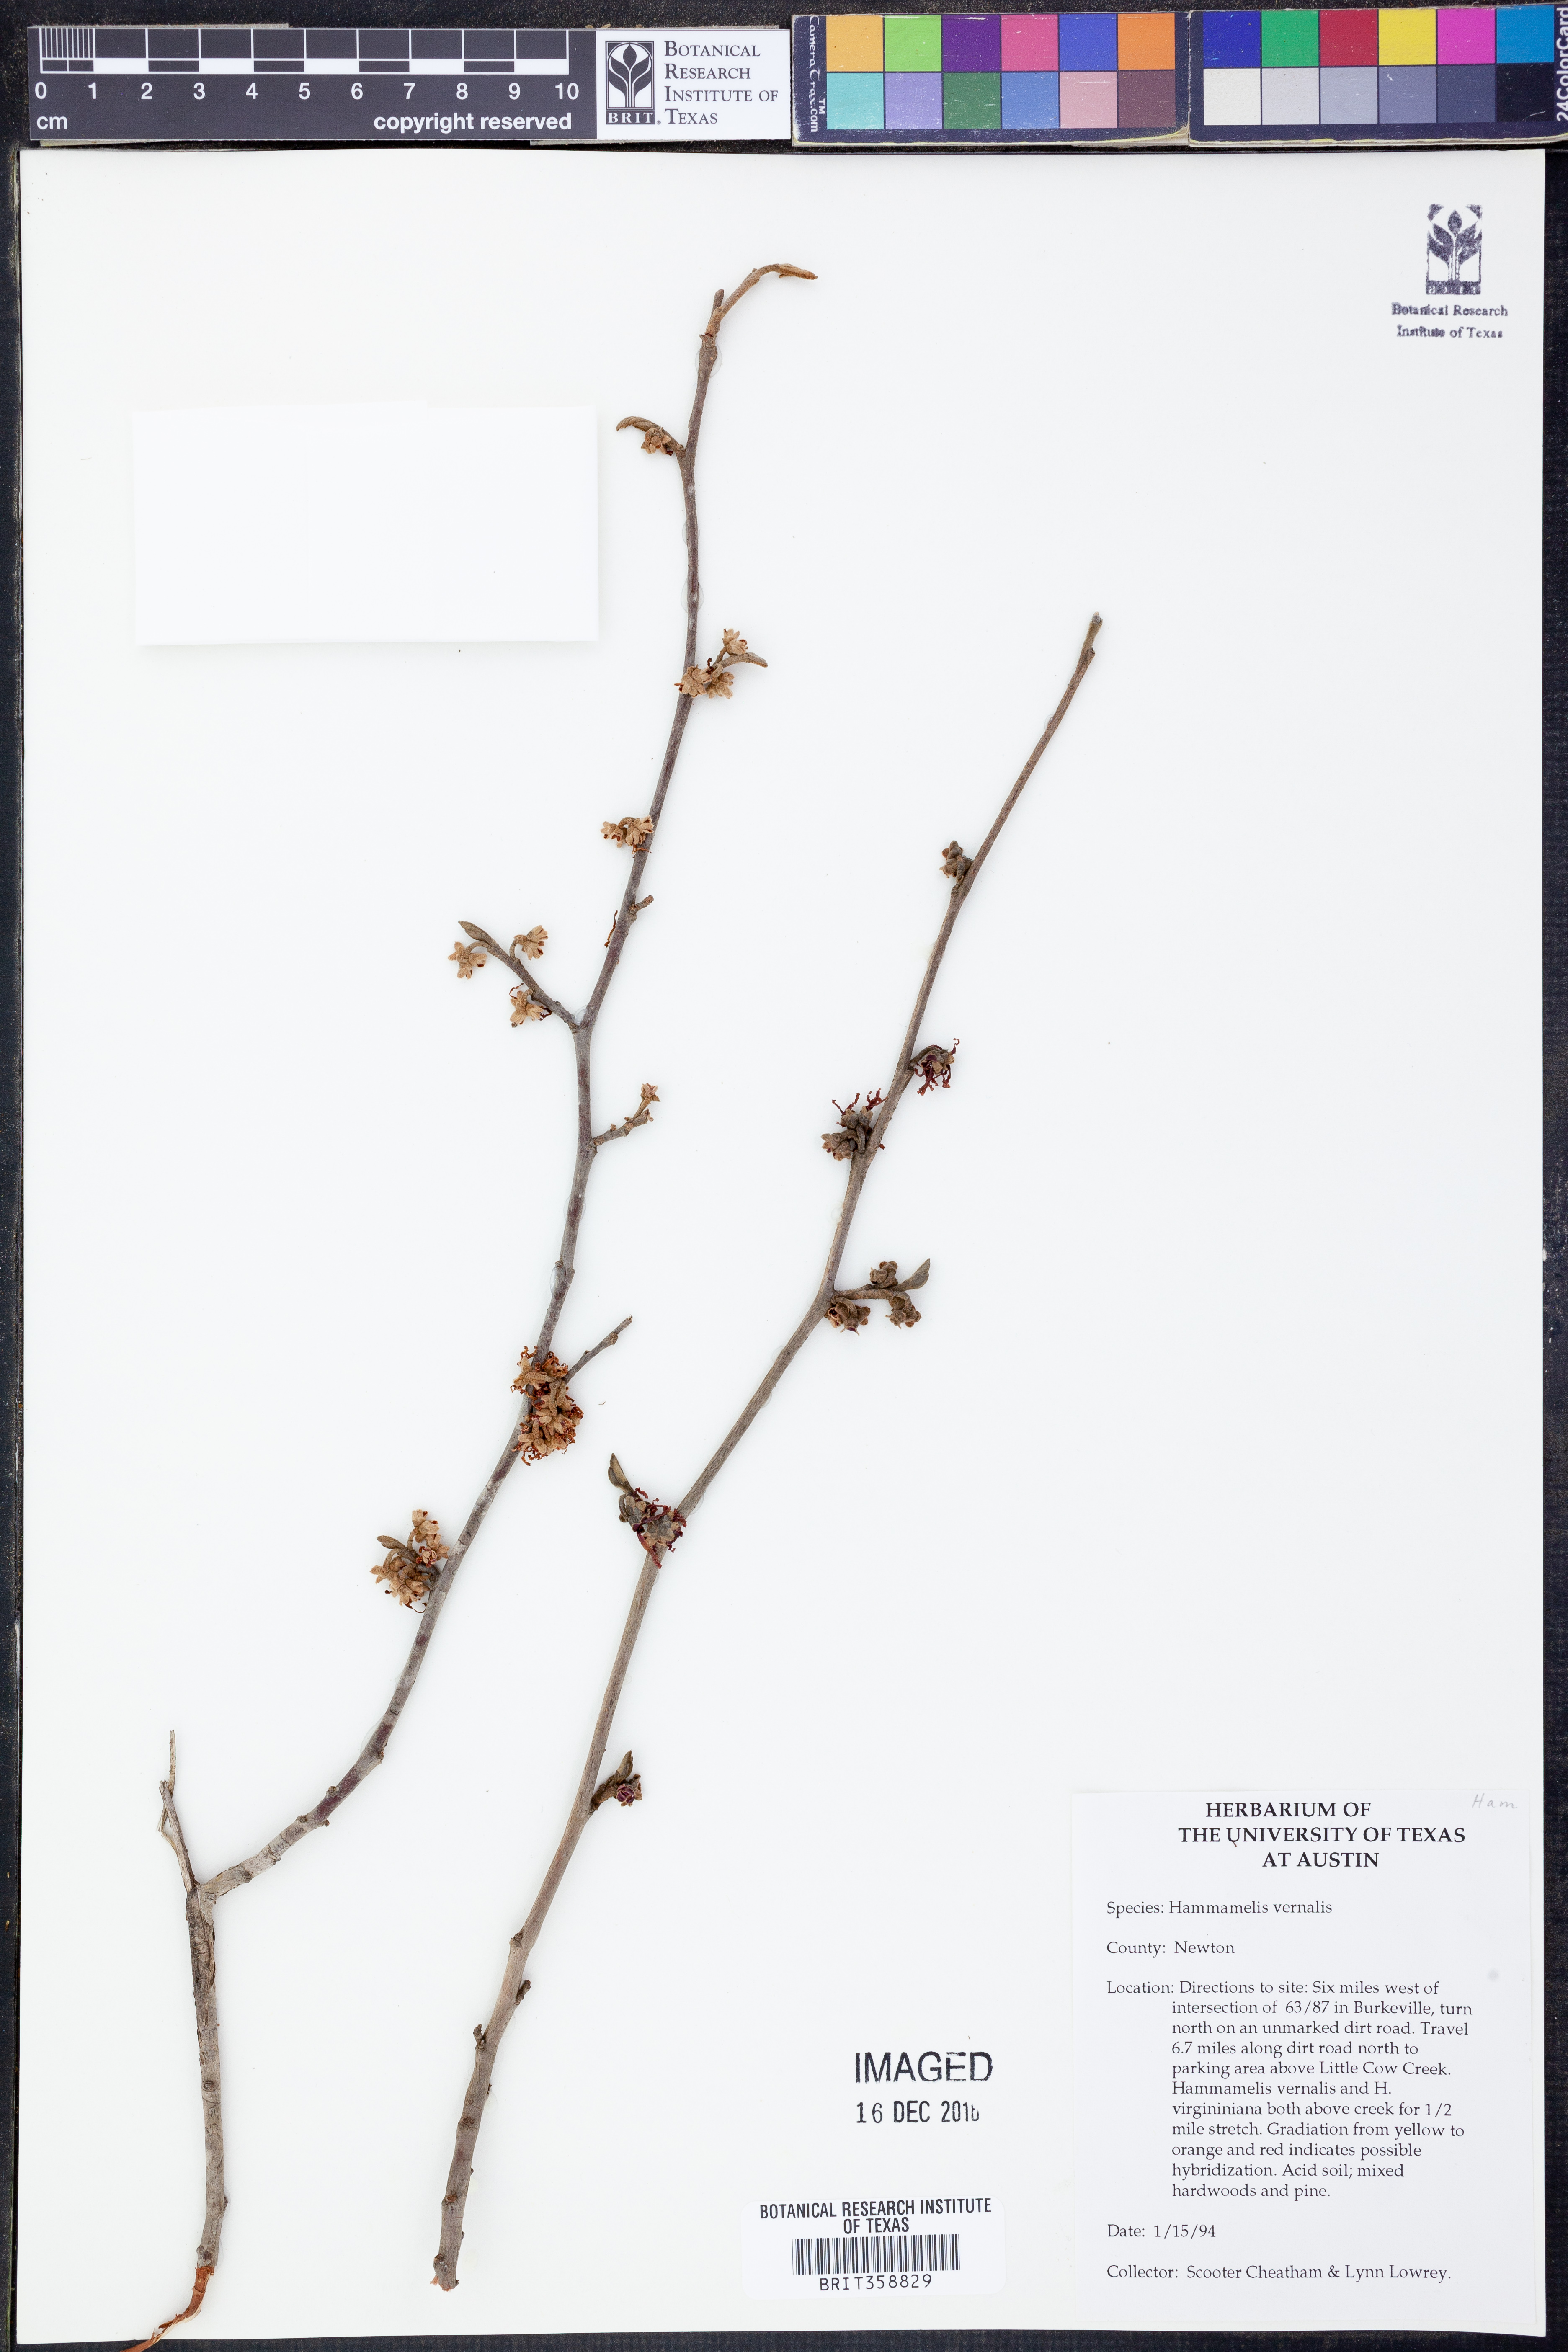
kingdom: Plantae
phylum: Tracheophyta
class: Magnoliopsida
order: Saxifragales
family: Hamamelidaceae
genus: Hamamelis
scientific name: Hamamelis vernalis
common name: Ozark witch-hazel
